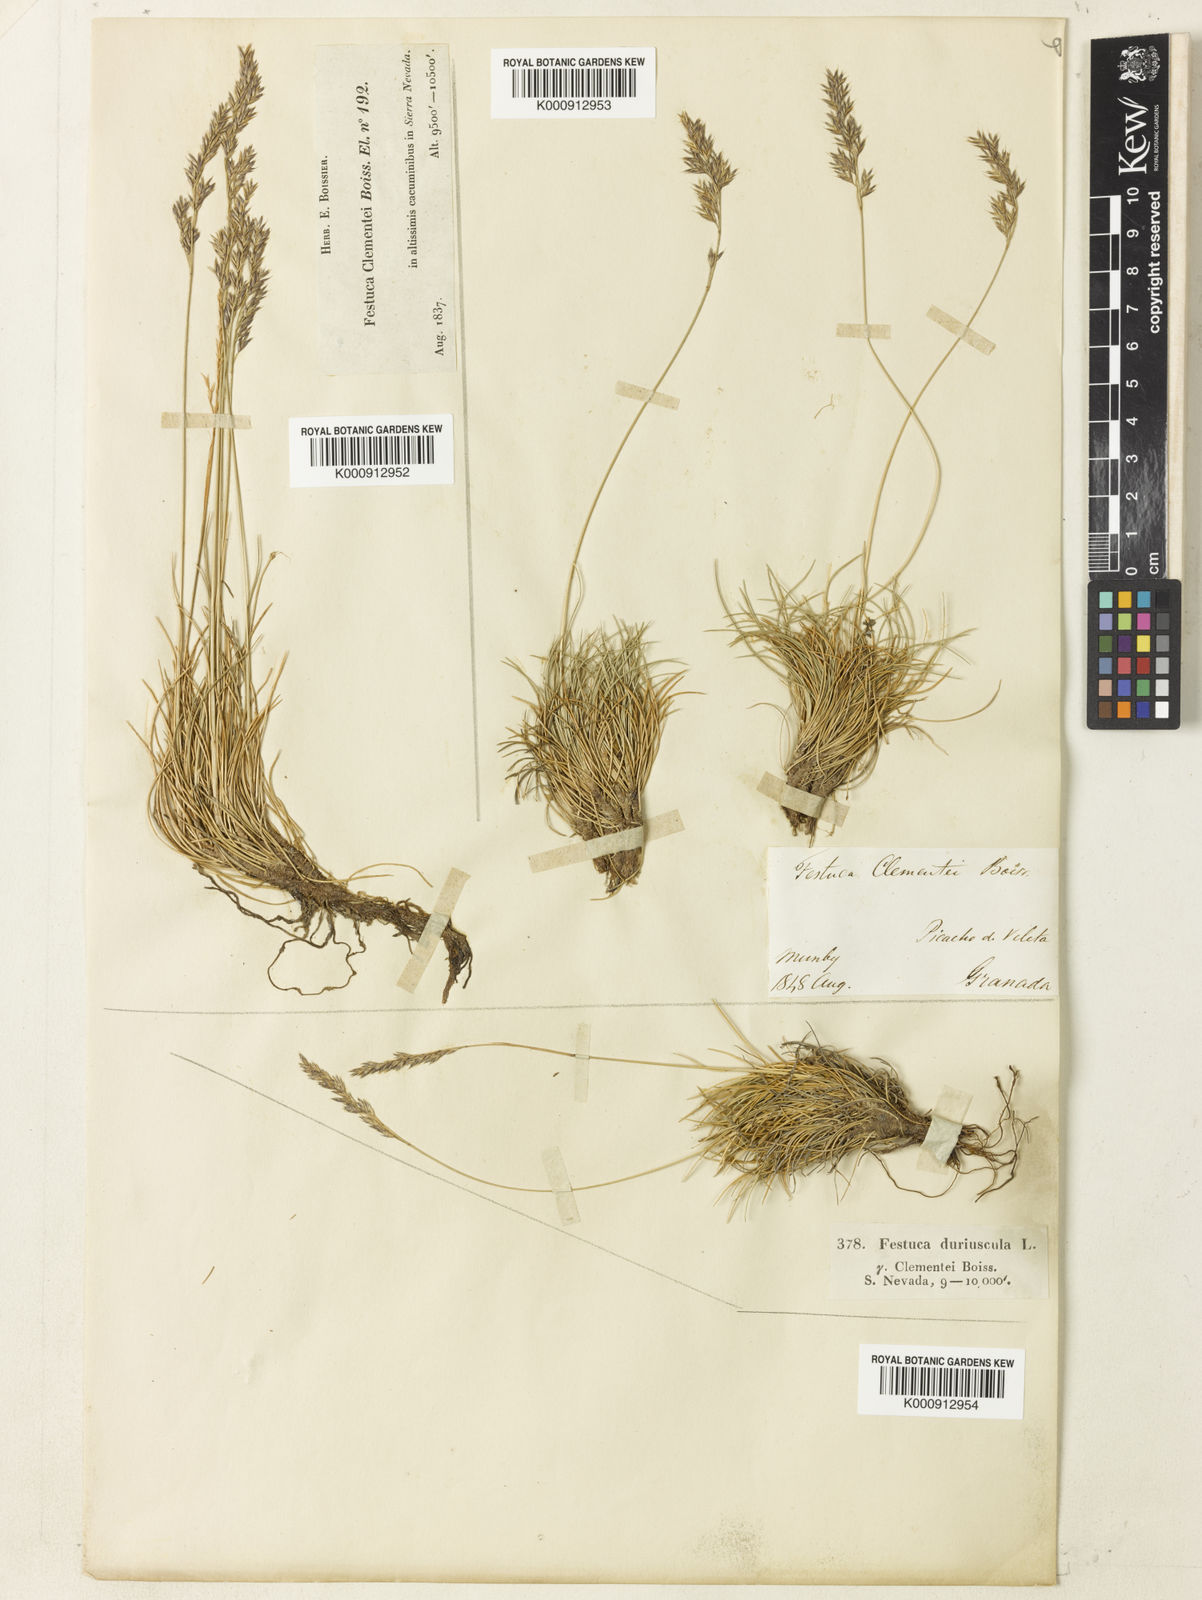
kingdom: Plantae
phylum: Tracheophyta
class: Liliopsida
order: Poales
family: Poaceae
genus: Festuca
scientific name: Festuca clementei
